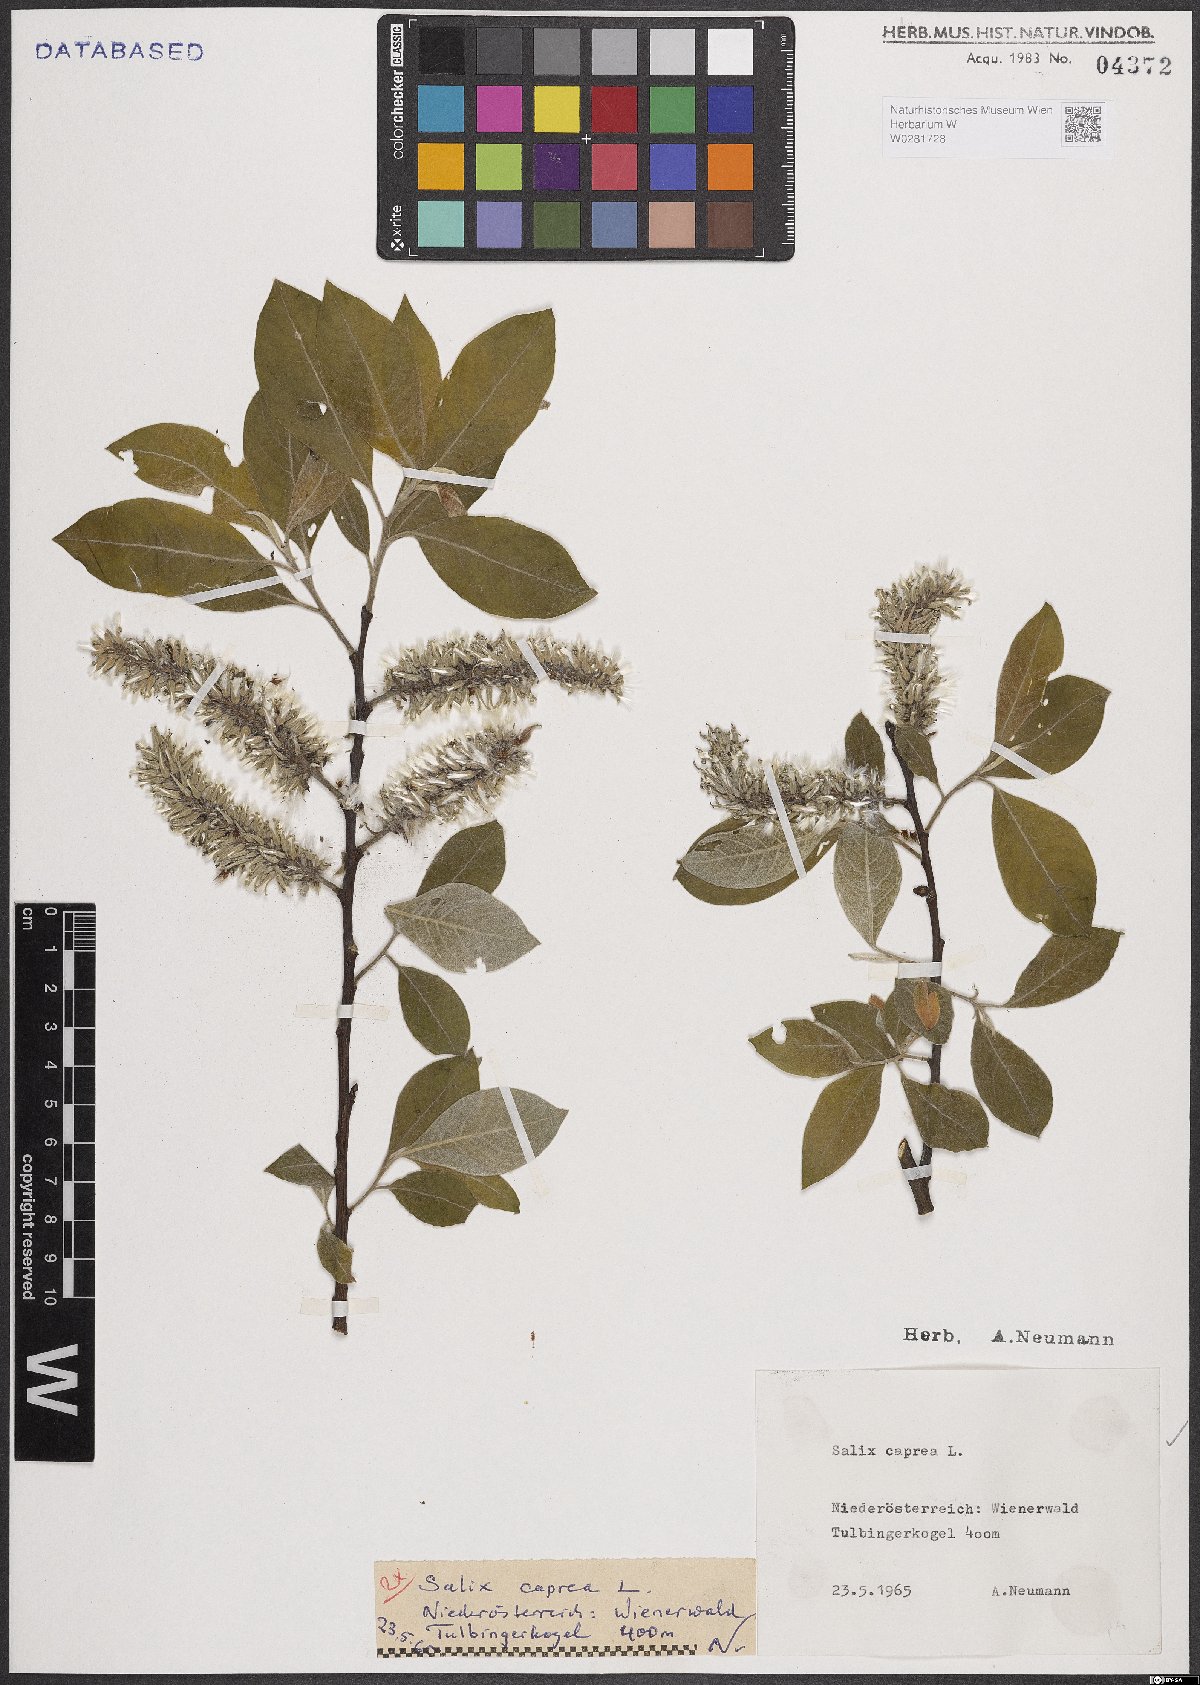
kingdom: Plantae
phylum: Tracheophyta
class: Magnoliopsida
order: Malpighiales
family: Salicaceae
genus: Salix
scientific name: Salix caprea
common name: Goat willow
